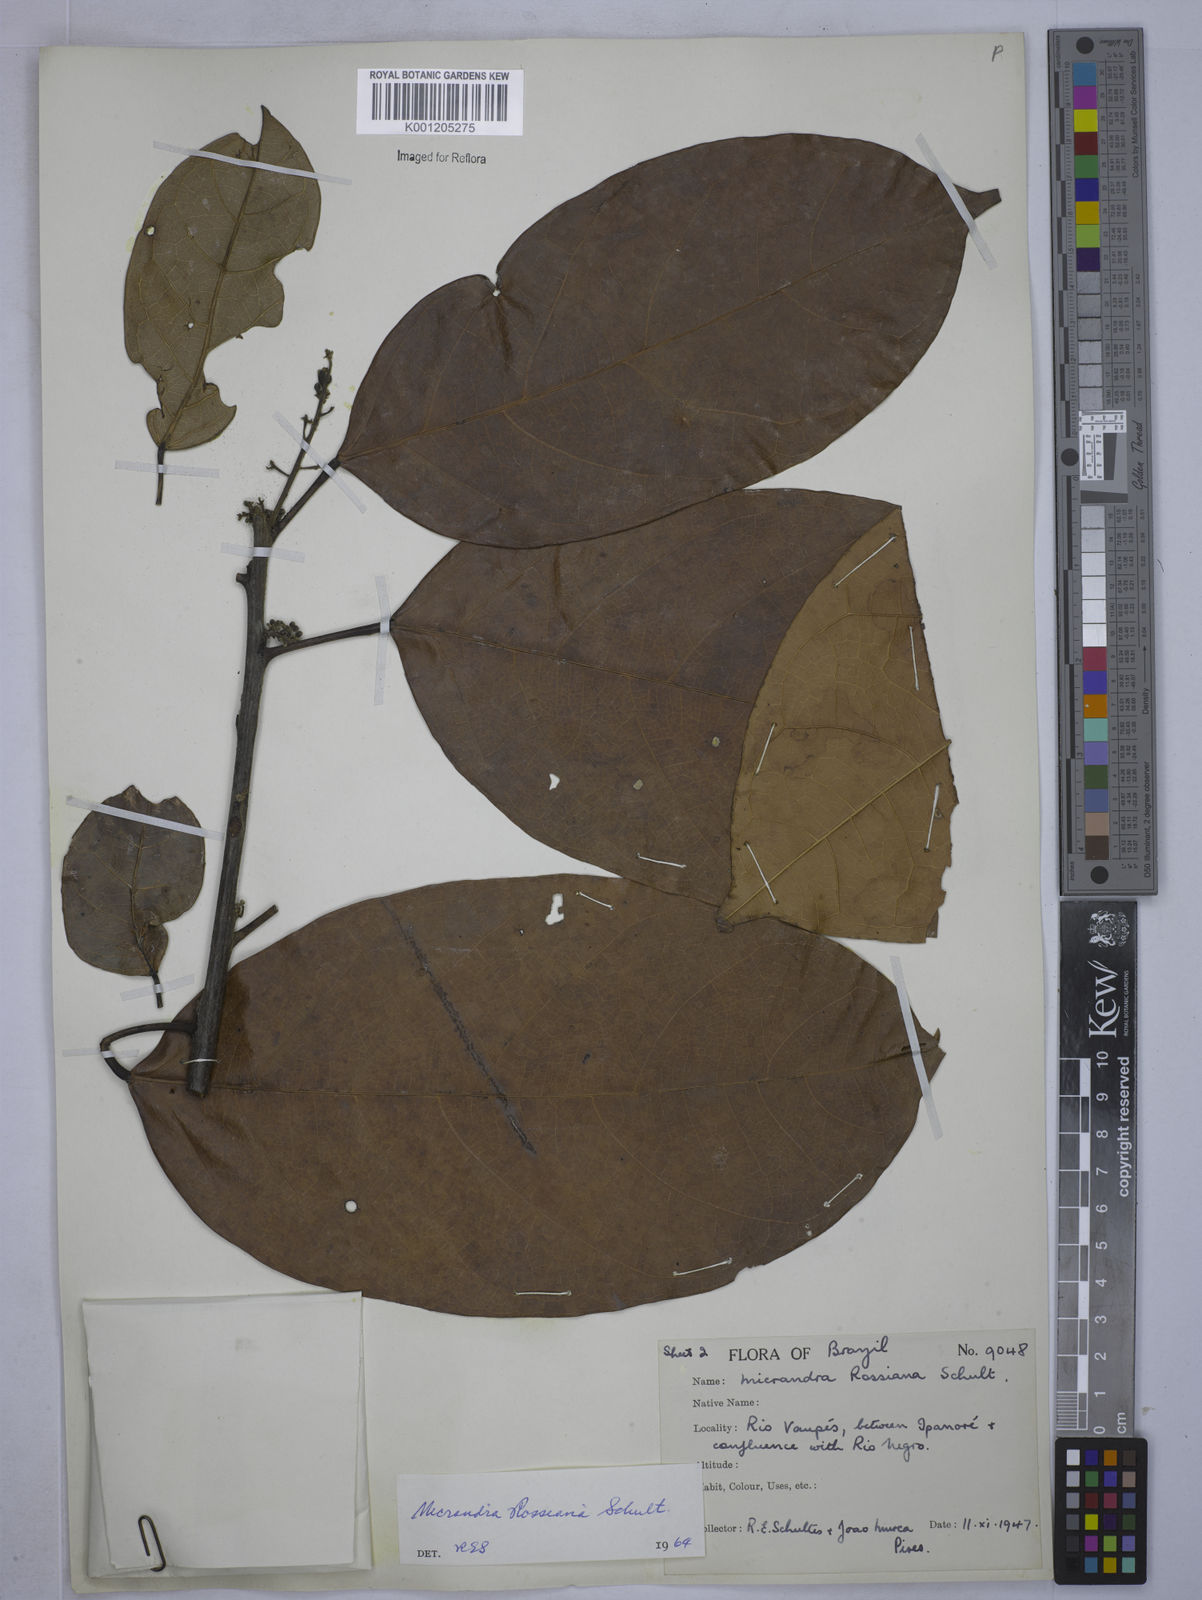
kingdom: Plantae
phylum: Tracheophyta
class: Magnoliopsida
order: Malpighiales
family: Euphorbiaceae
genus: Micrandra
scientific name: Micrandra rossiana
